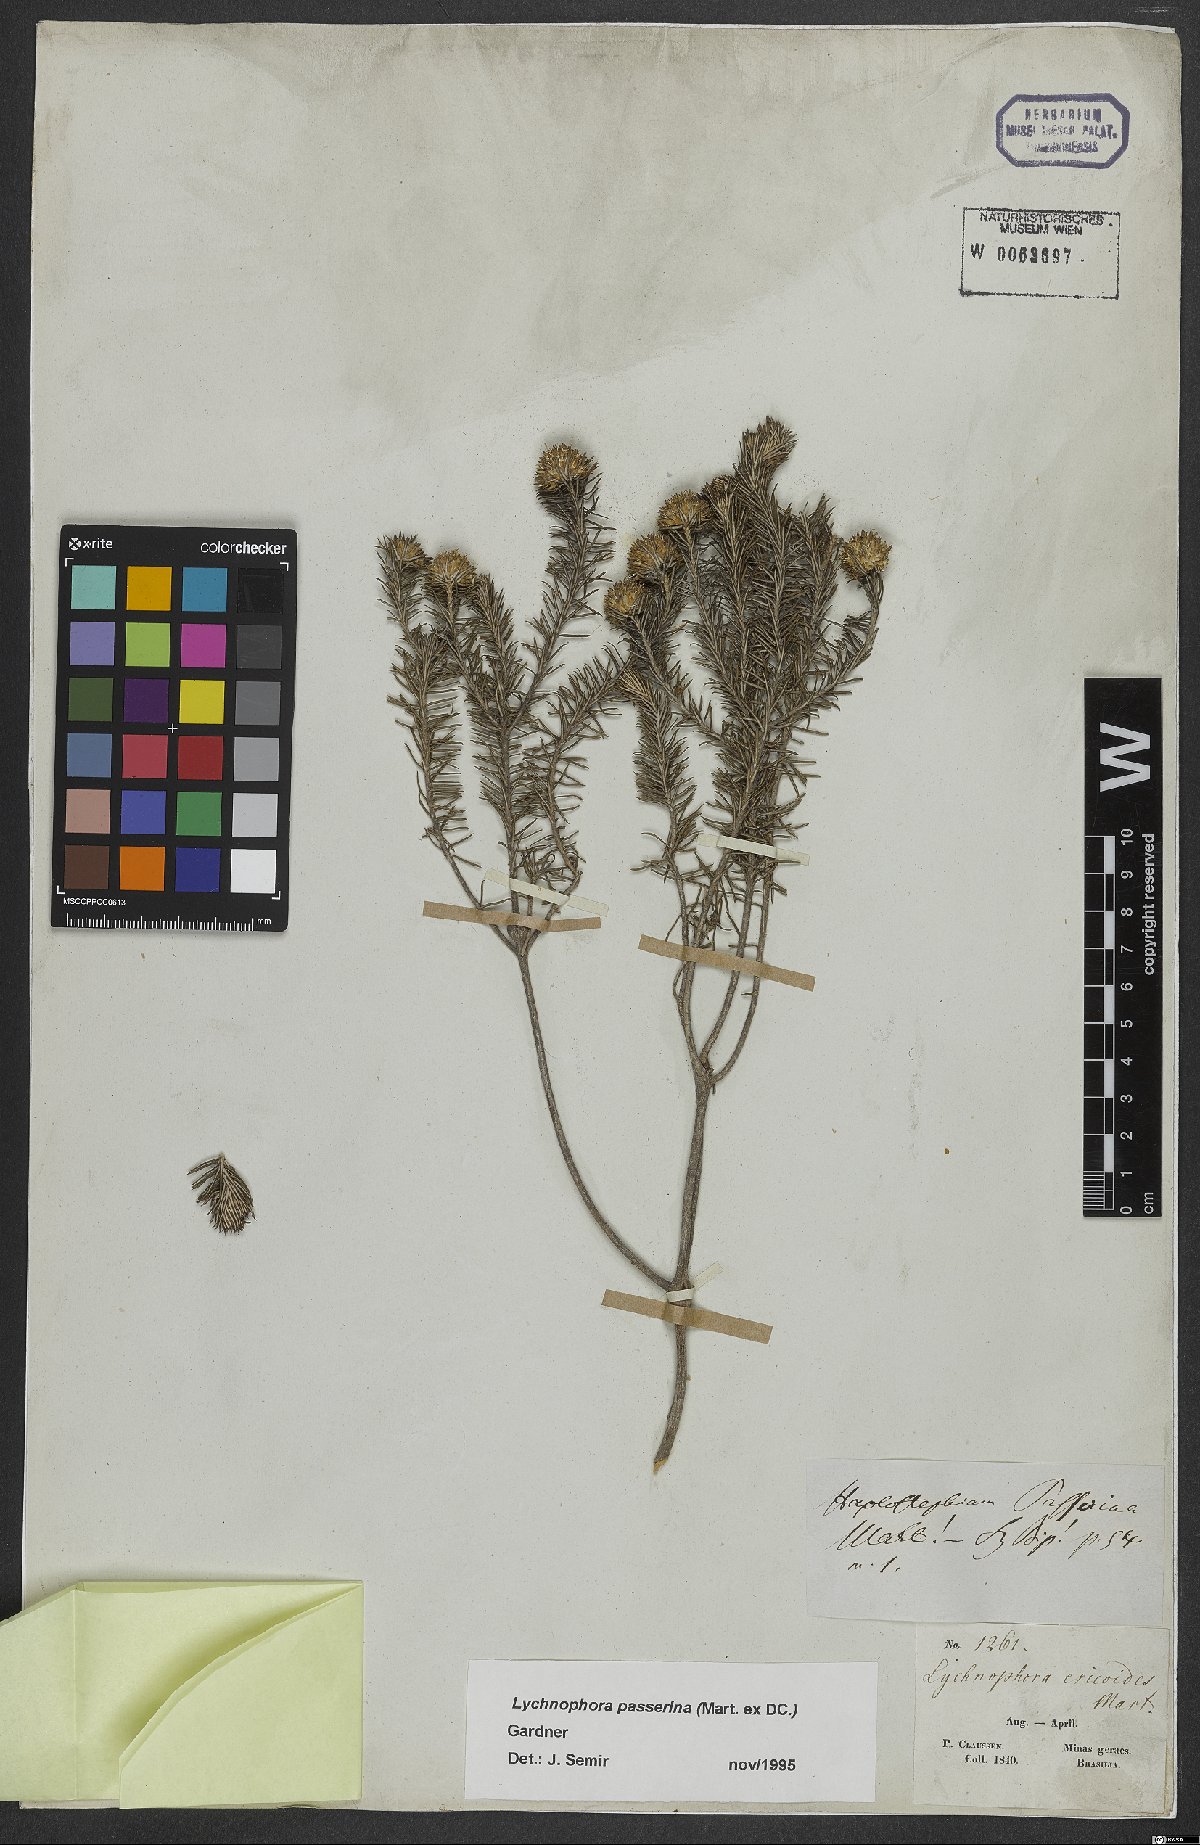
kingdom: Plantae
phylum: Tracheophyta
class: Magnoliopsida
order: Asterales
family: Asteraceae
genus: Lychnophora
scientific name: Lychnophora passerina
